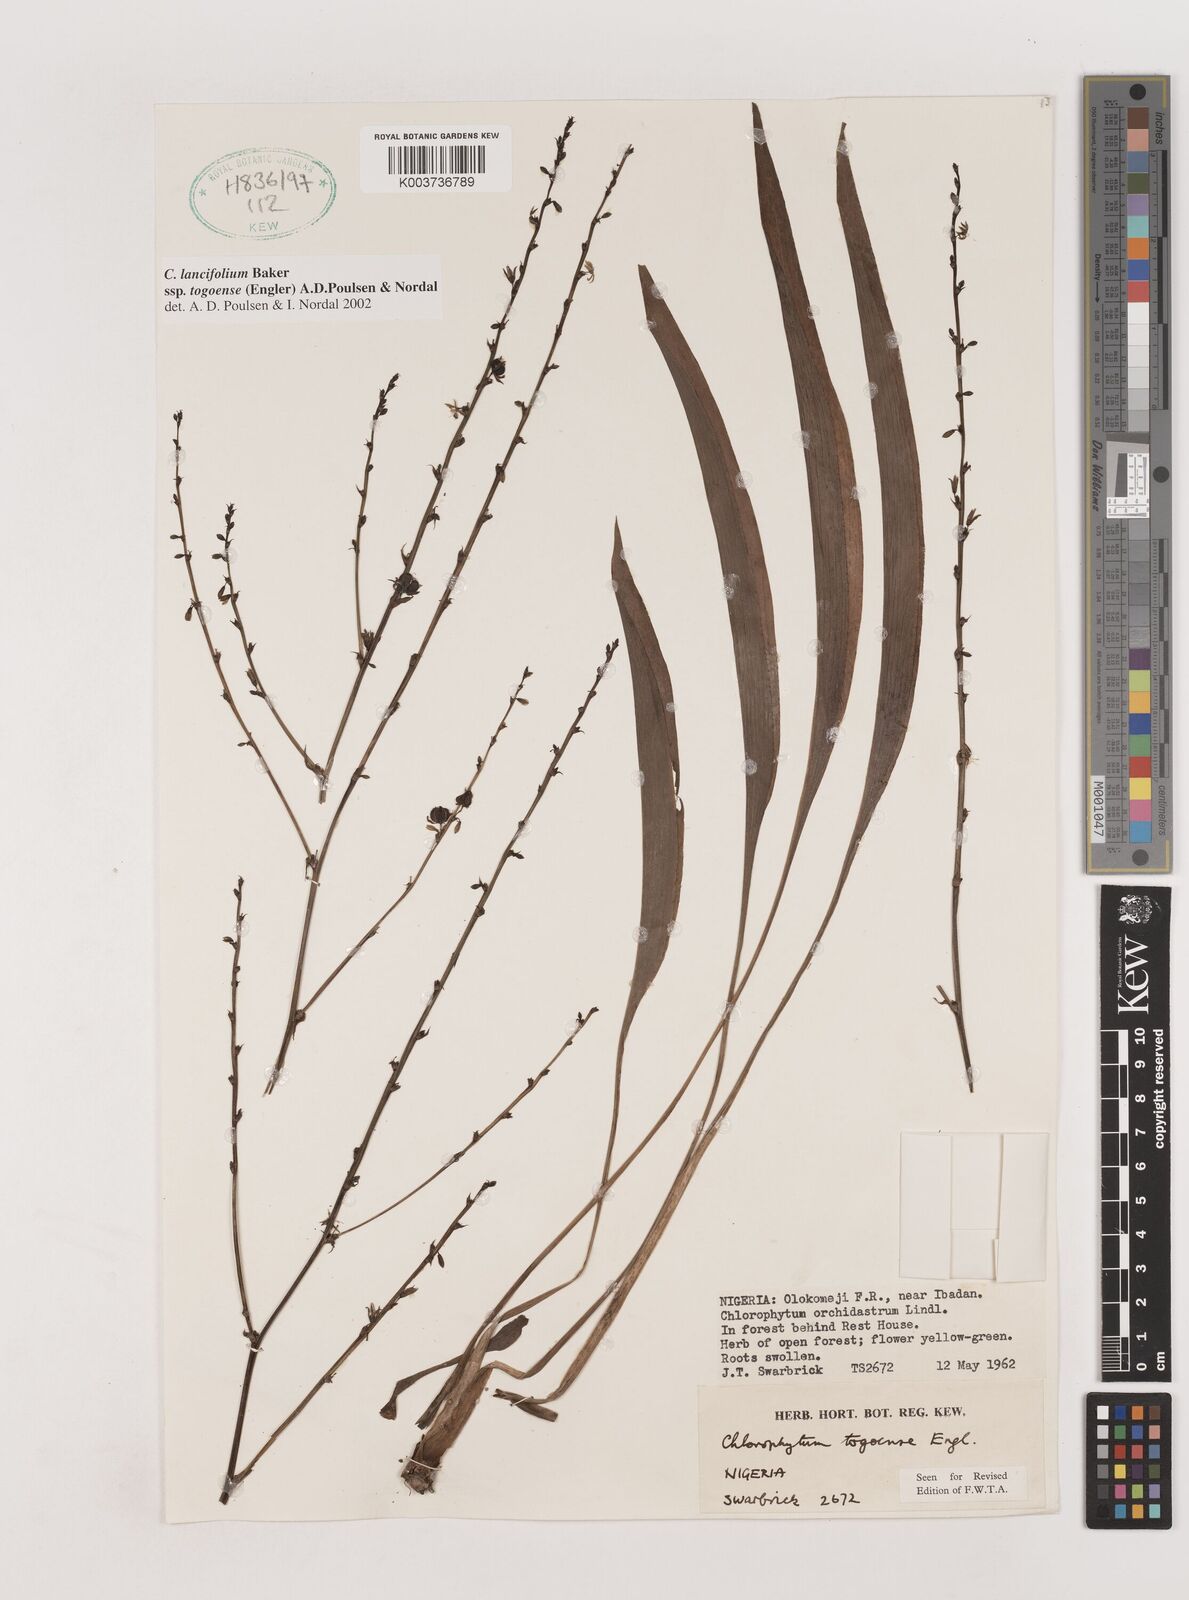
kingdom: Plantae
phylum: Tracheophyta
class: Liliopsida
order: Asparagales
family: Asparagaceae
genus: Chlorophytum
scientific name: Chlorophytum lancifolium
